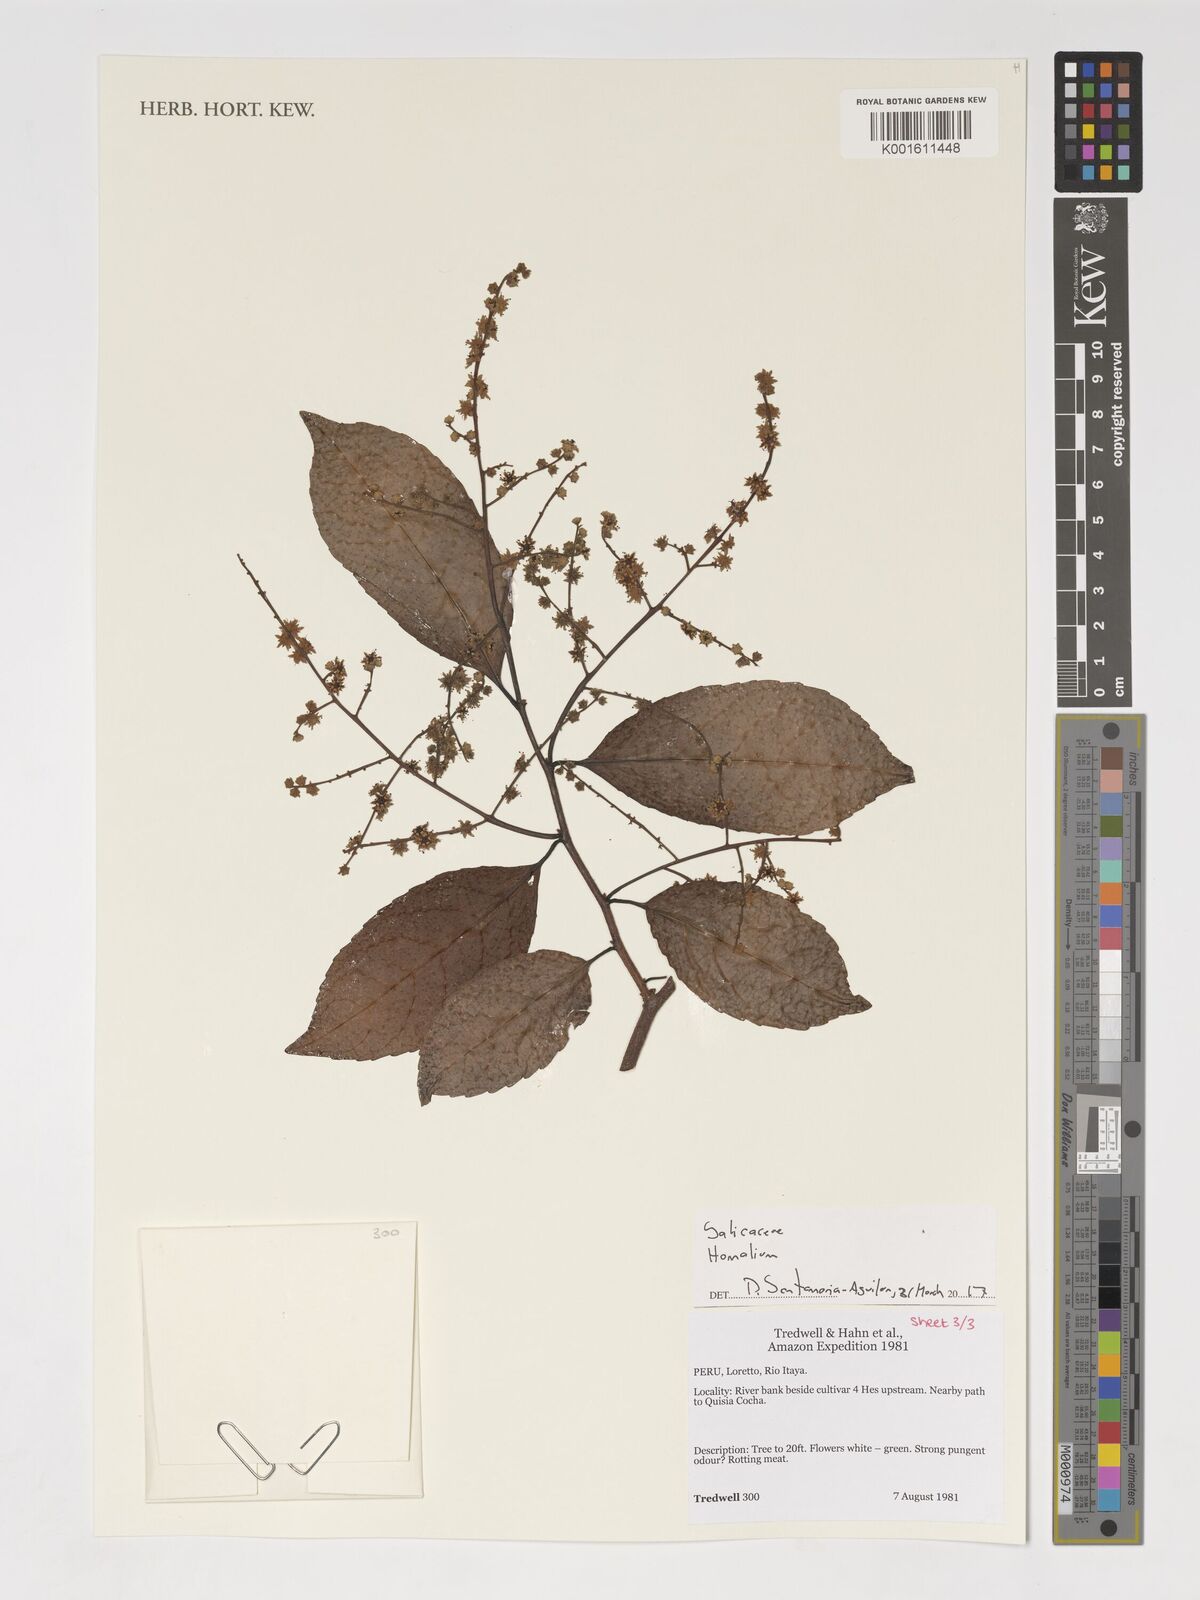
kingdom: Plantae
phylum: Tracheophyta
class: Magnoliopsida
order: Malpighiales
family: Salicaceae
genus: Homalium
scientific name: Homalium
